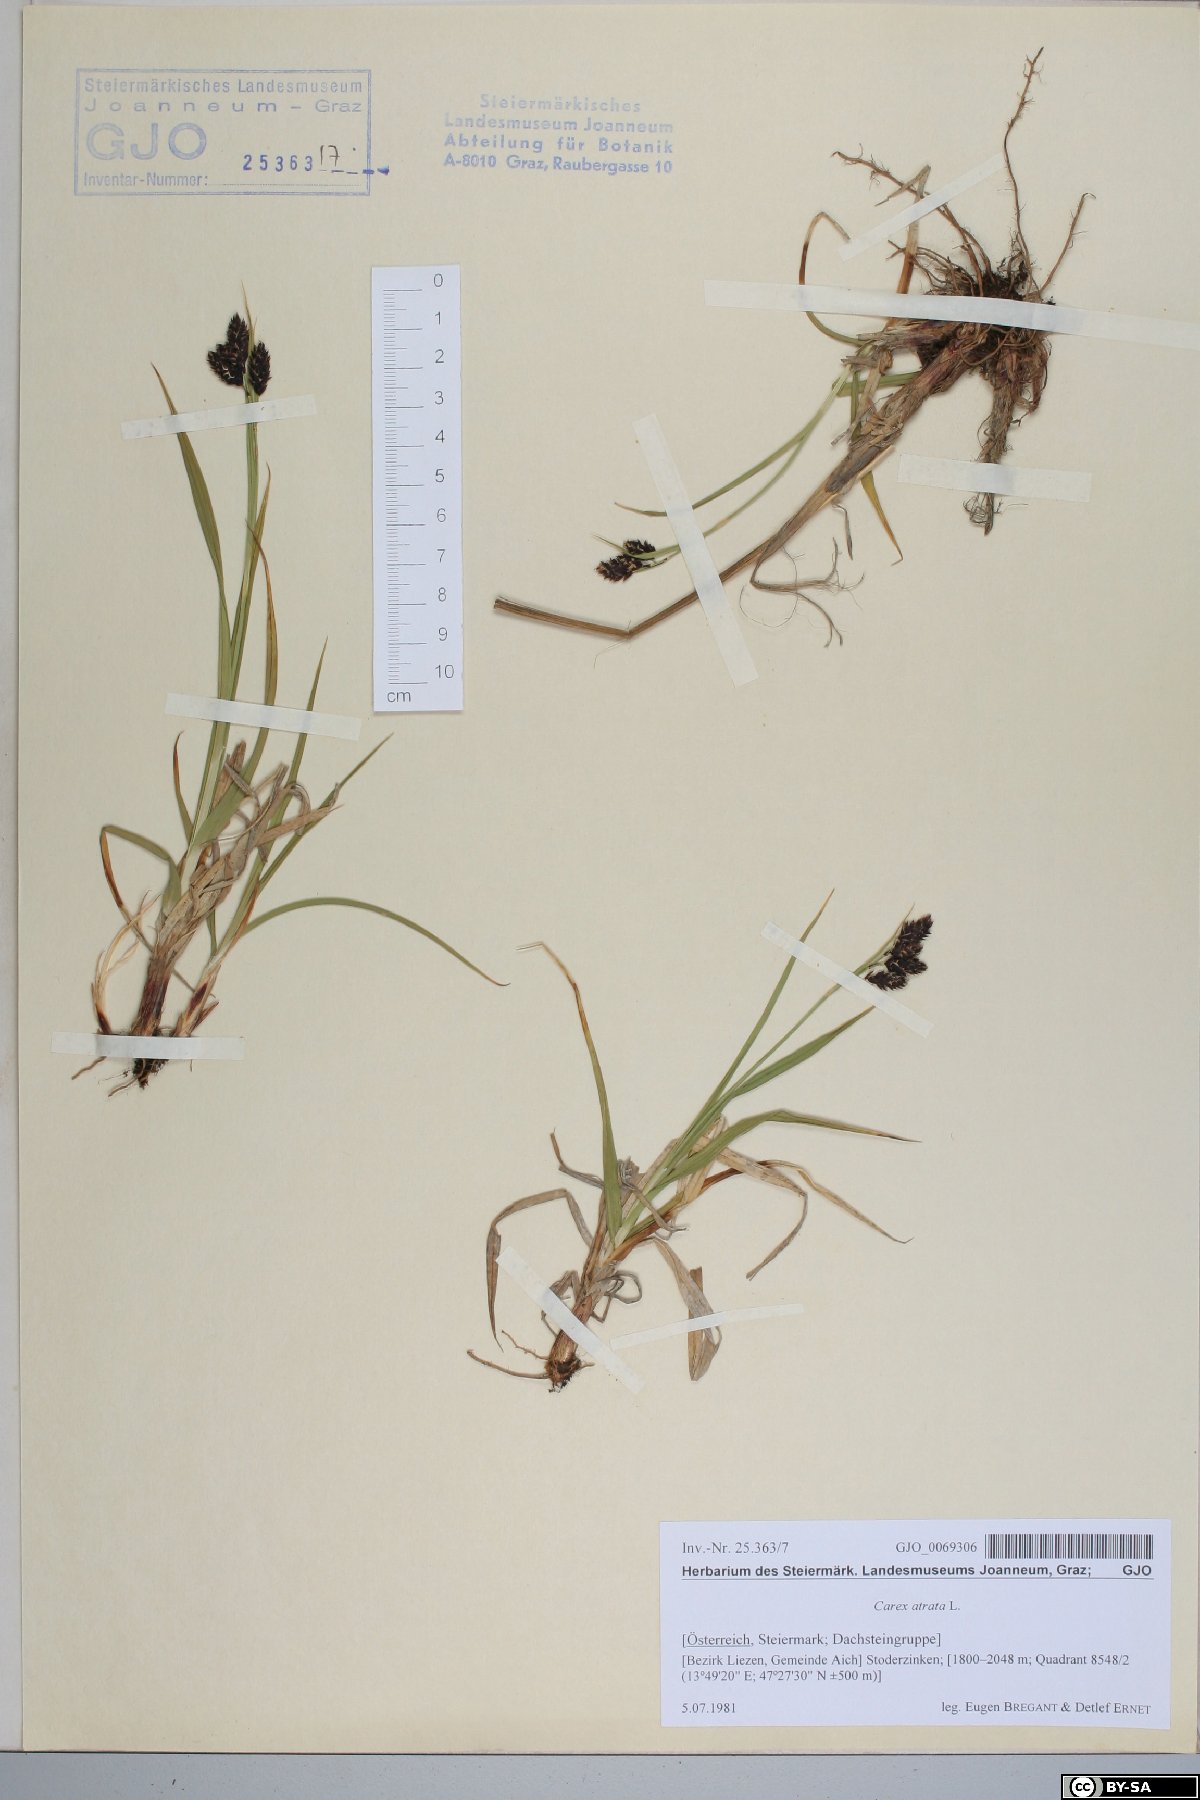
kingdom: Plantae
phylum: Tracheophyta
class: Liliopsida
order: Poales
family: Cyperaceae
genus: Carex
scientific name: Carex atrata
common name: Black alpine sedge
